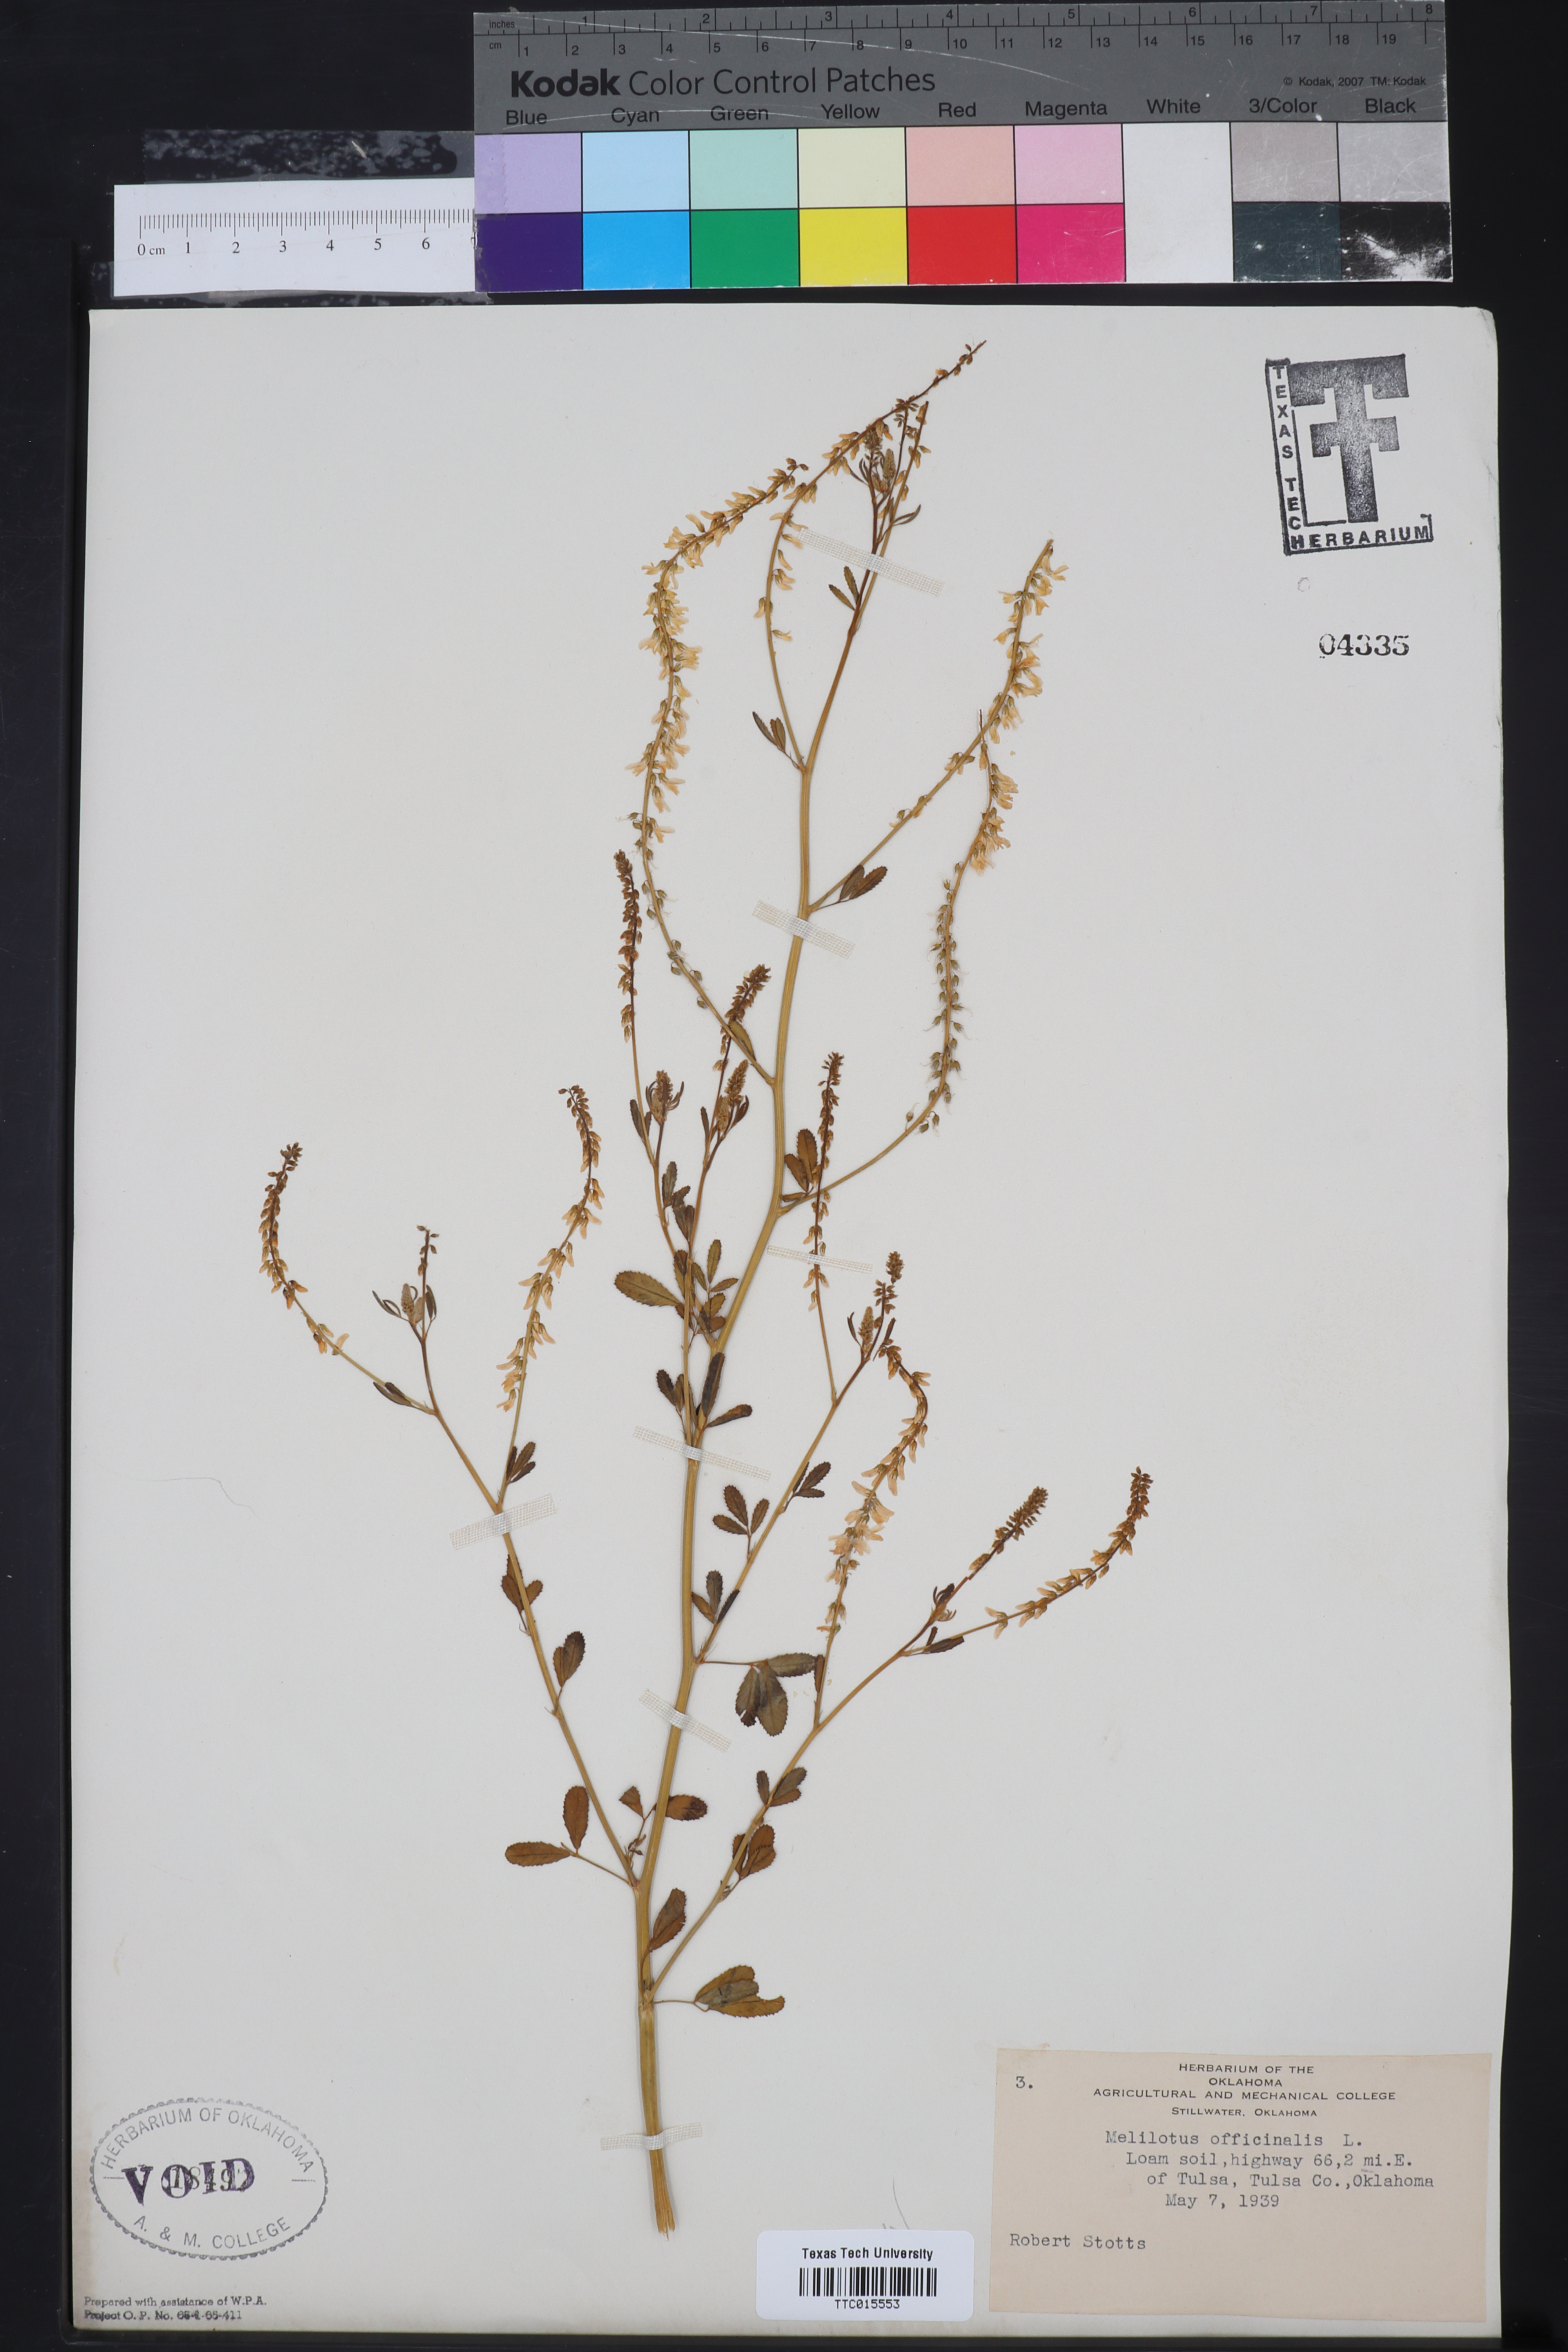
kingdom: Plantae
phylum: Tracheophyta
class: Magnoliopsida
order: Fabales
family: Fabaceae
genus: Melilotus
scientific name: Melilotus officinalis
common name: Sweetclover
